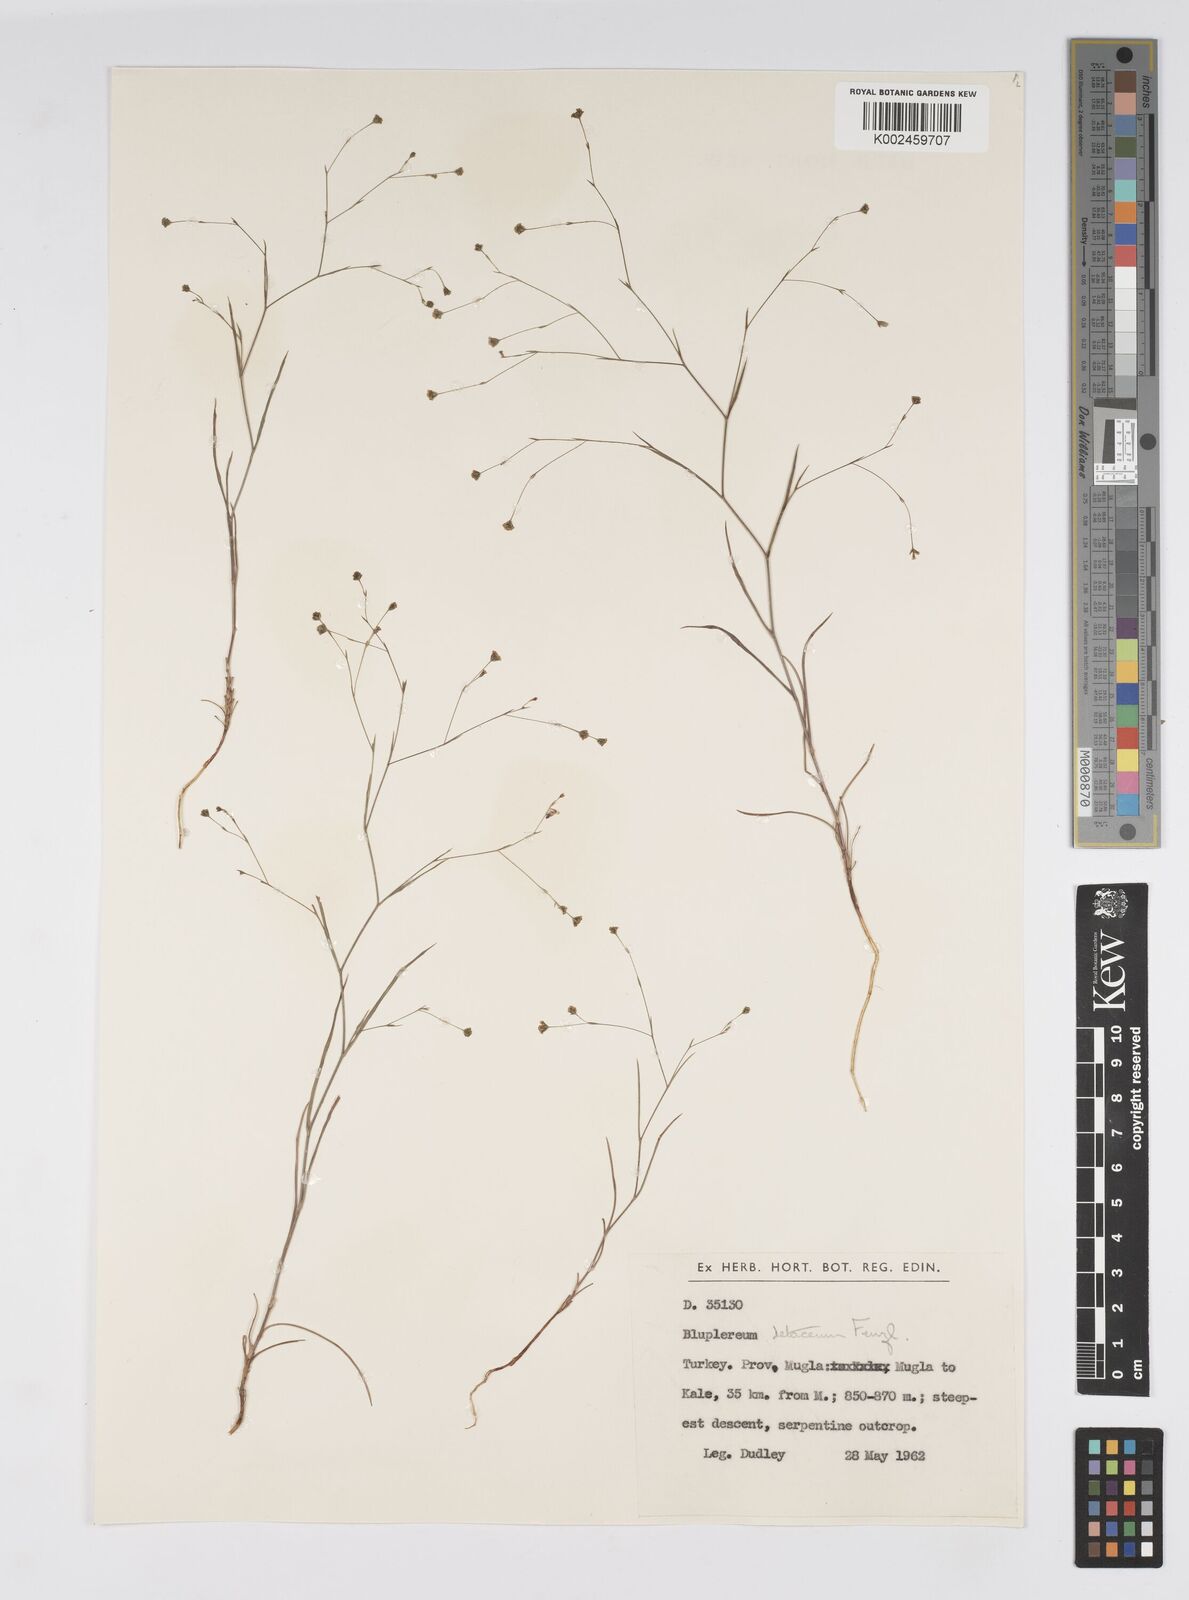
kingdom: Plantae
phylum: Tracheophyta
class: Magnoliopsida
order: Apiales
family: Apiaceae
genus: Bupleurum
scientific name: Bupleurum setaceum
